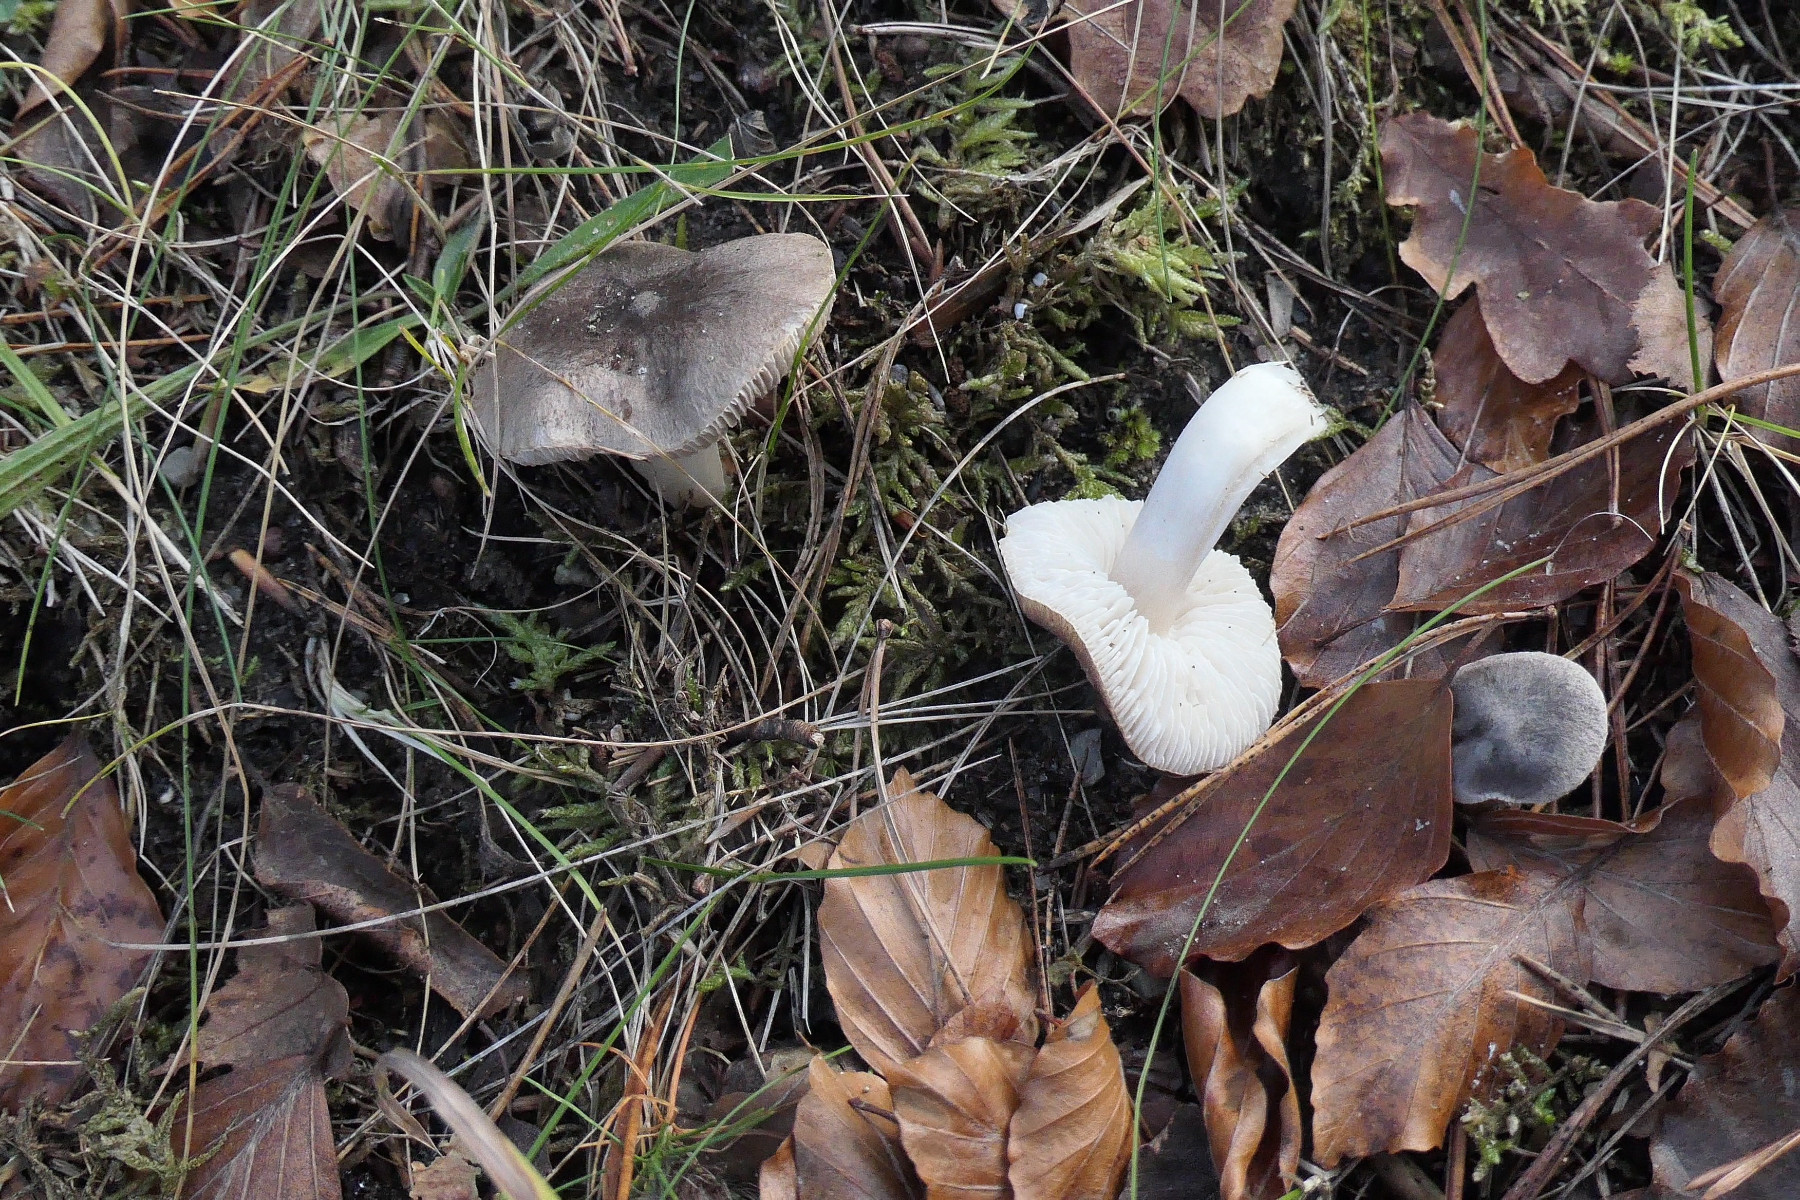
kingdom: Fungi
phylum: Basidiomycota
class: Agaricomycetes
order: Agaricales
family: Tricholomataceae
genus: Tricholoma
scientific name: Tricholoma terreum
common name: jordfarvet ridderhat
